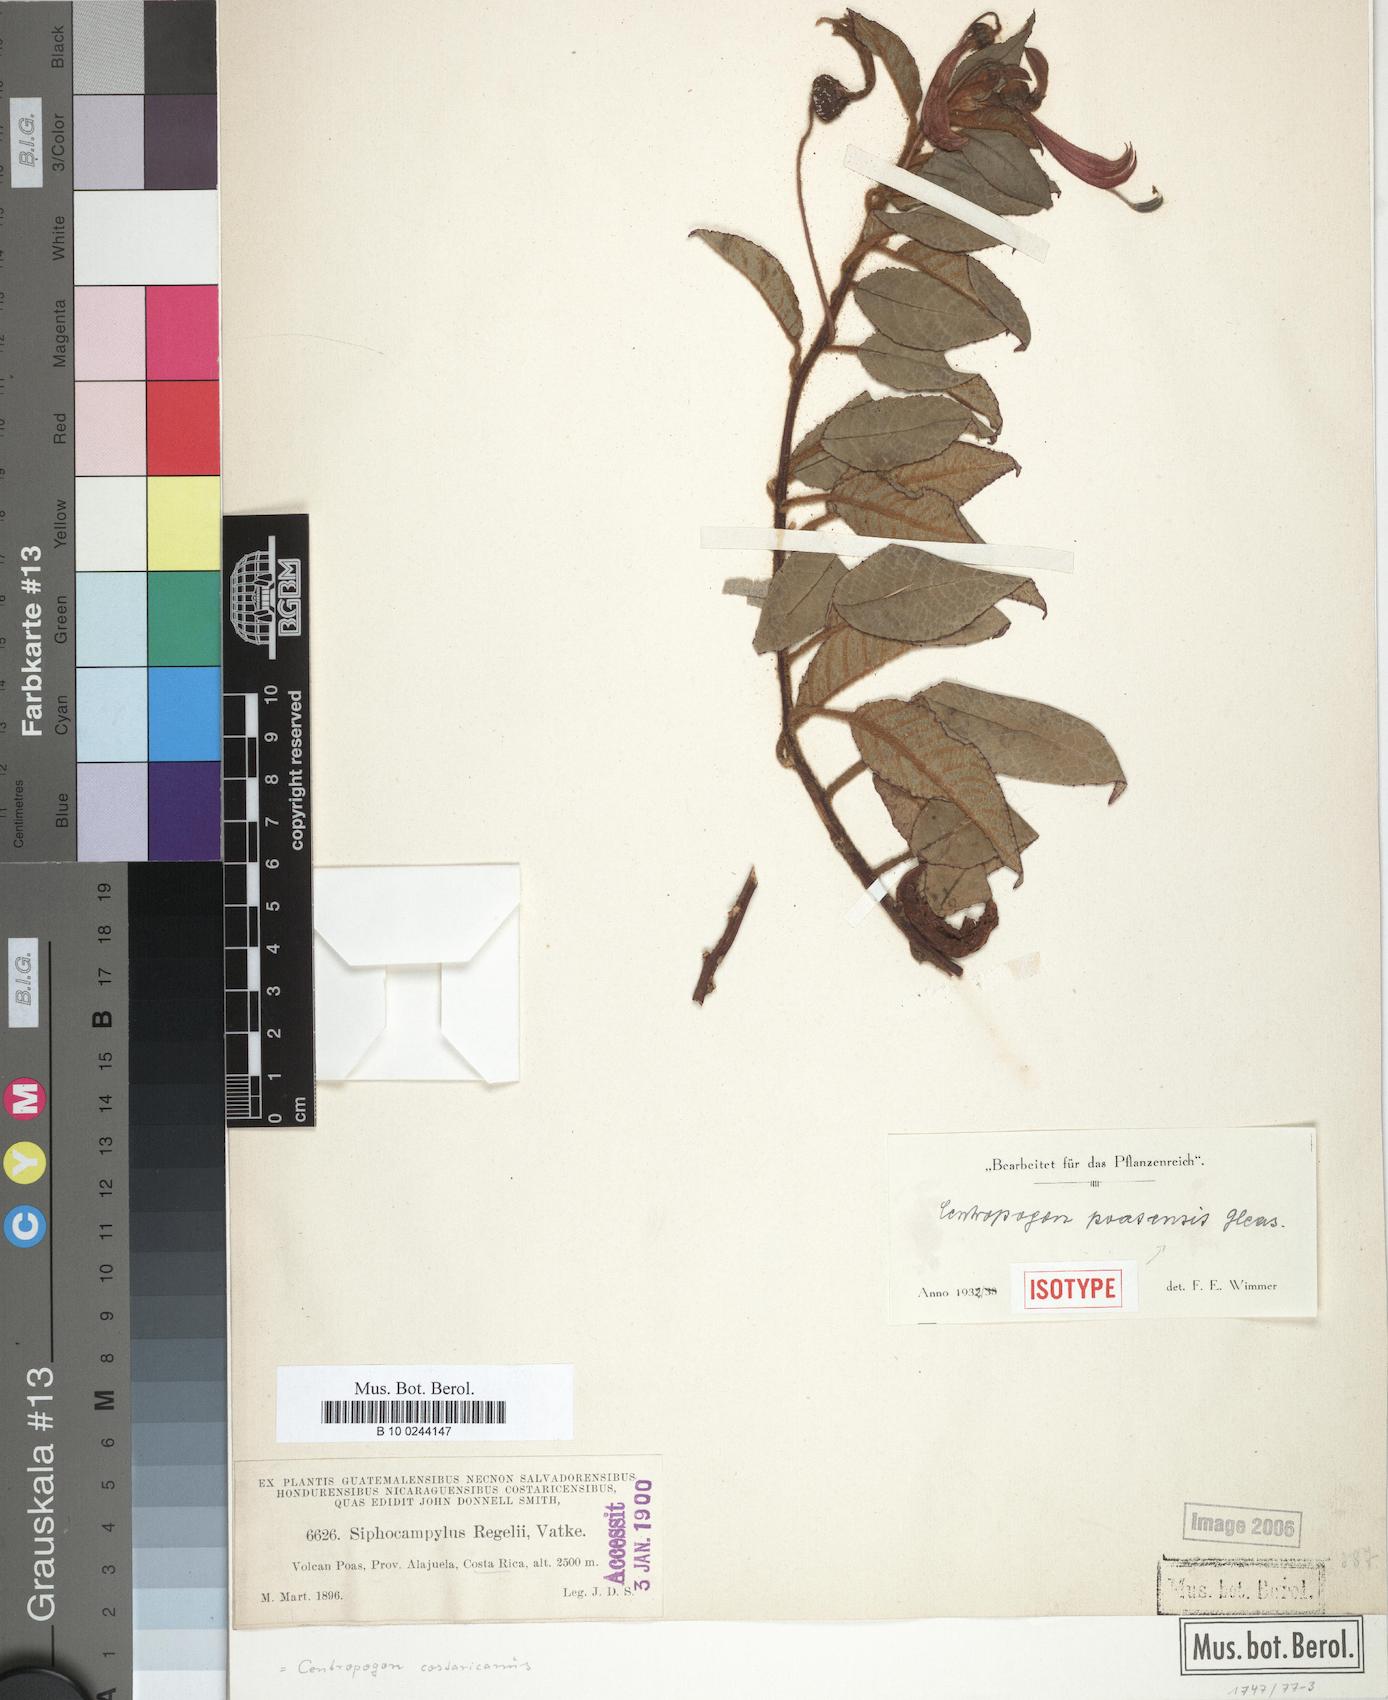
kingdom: Plantae
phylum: Tracheophyta
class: Magnoliopsida
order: Asterales
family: Campanulaceae
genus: Centropogon
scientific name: Centropogon ferrugineus
